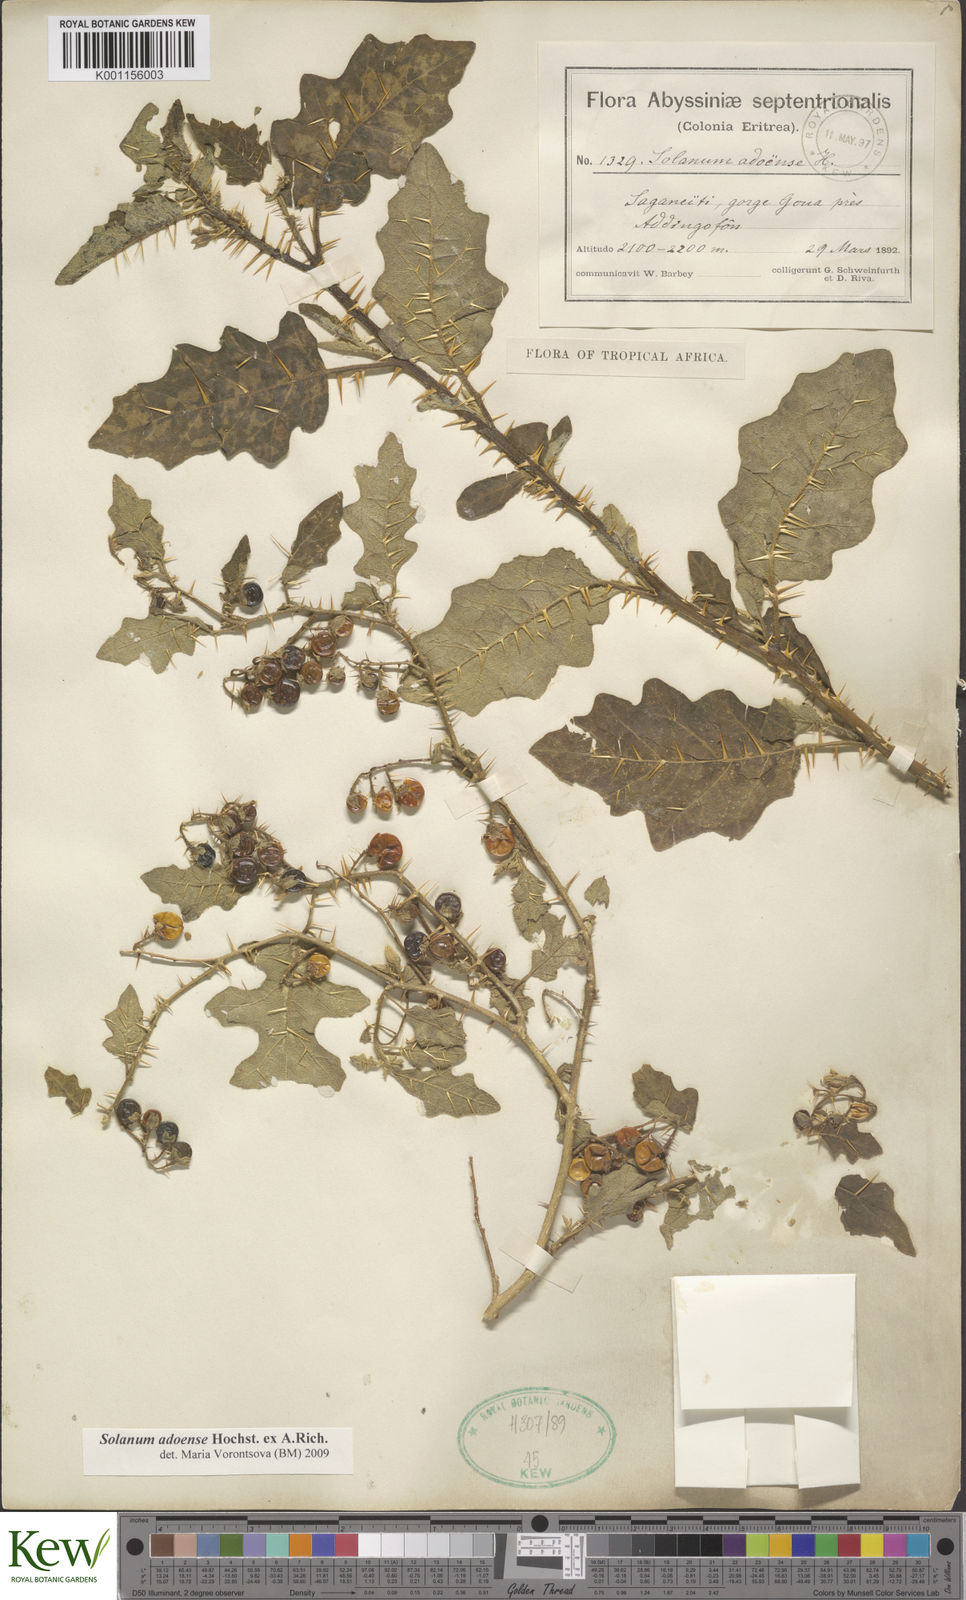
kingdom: Plantae
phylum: Tracheophyta
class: Magnoliopsida
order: Solanales
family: Solanaceae
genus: Solanum
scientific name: Solanum adoense
